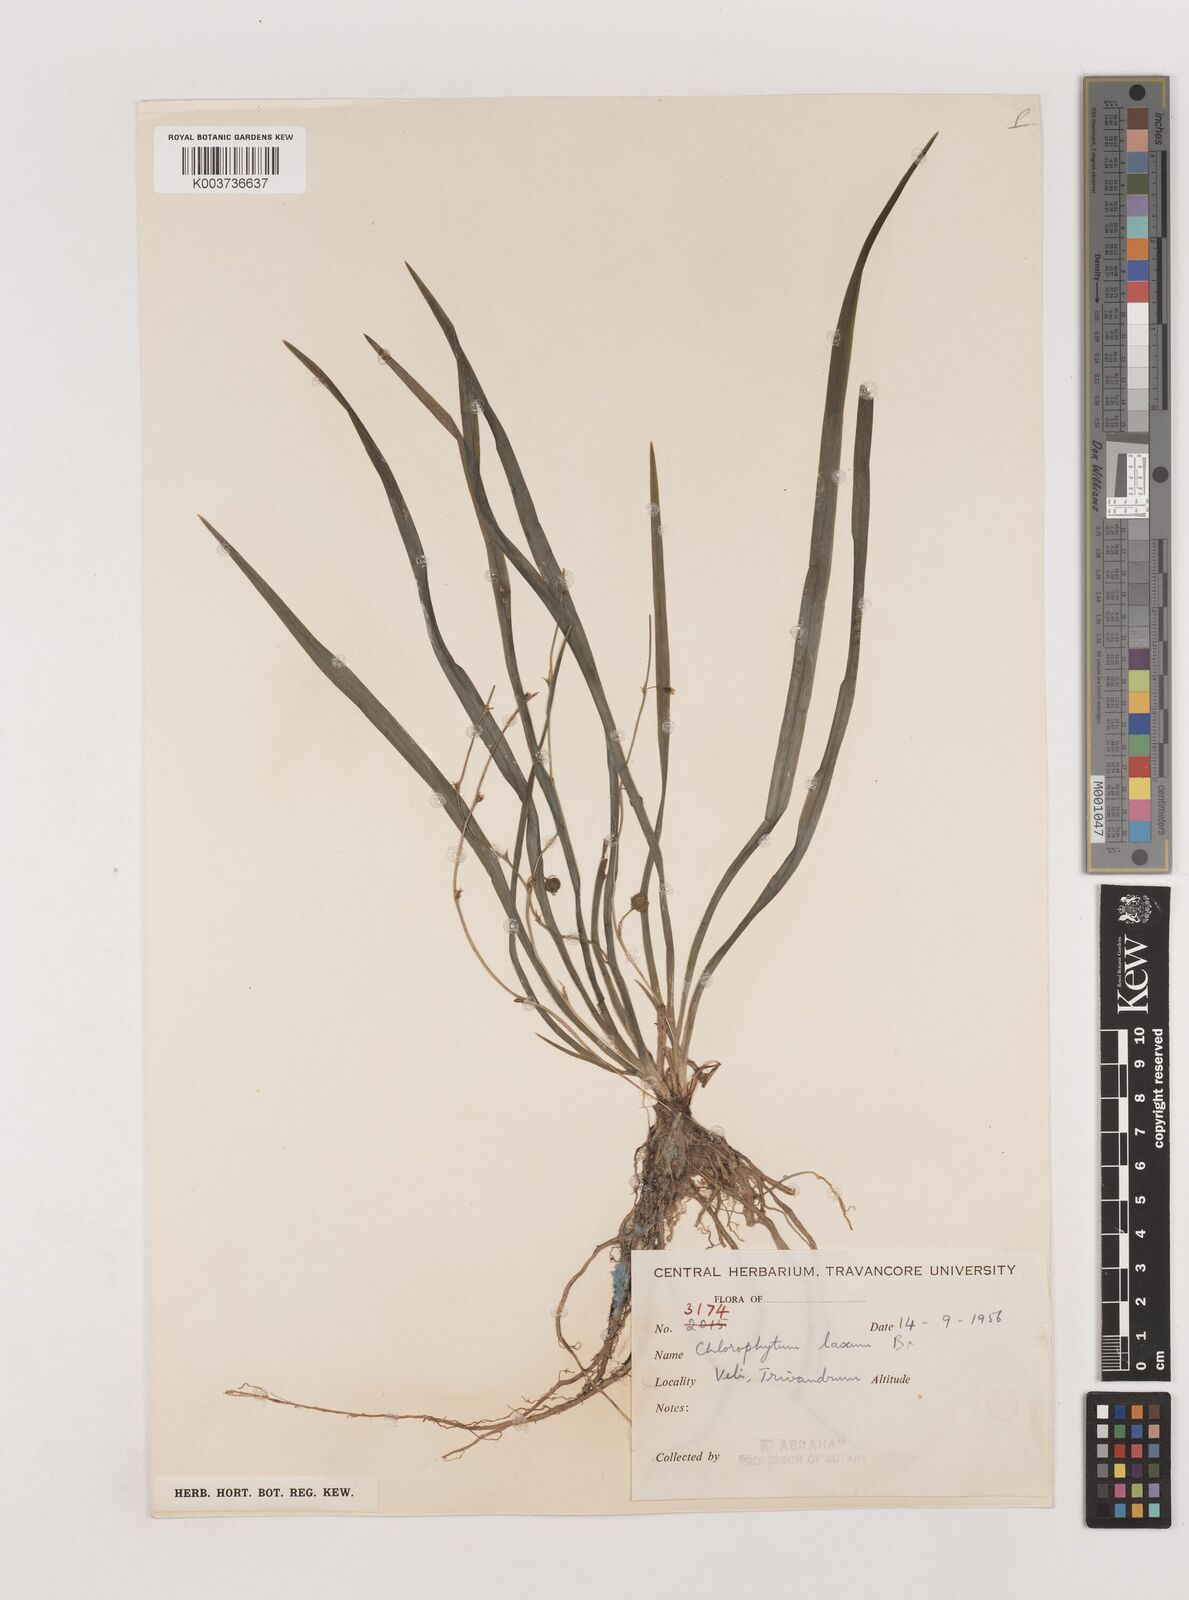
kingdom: Plantae
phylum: Tracheophyta
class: Liliopsida
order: Asparagales
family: Asparagaceae
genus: Chlorophytum
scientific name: Chlorophytum laxum
